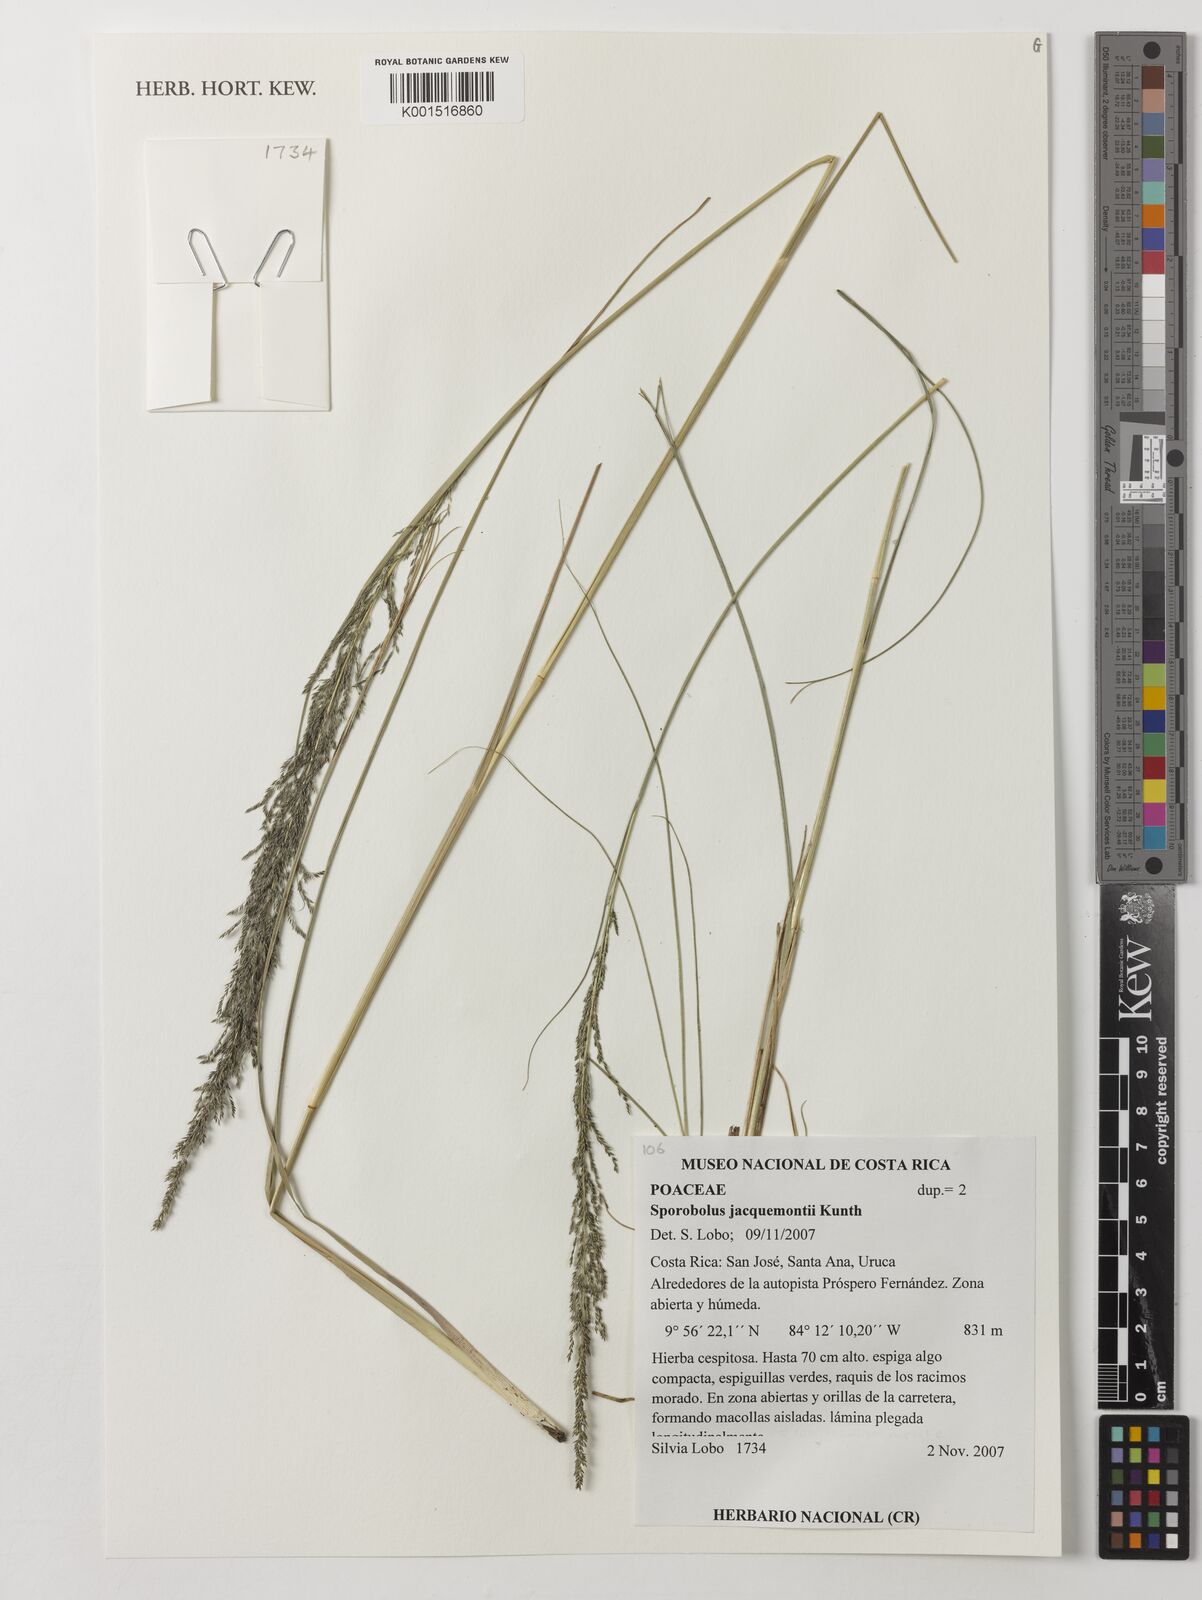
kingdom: Plantae
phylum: Tracheophyta
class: Liliopsida
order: Poales
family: Poaceae
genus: Sporobolus
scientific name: Sporobolus pyramidalis
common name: West indian dropseed
